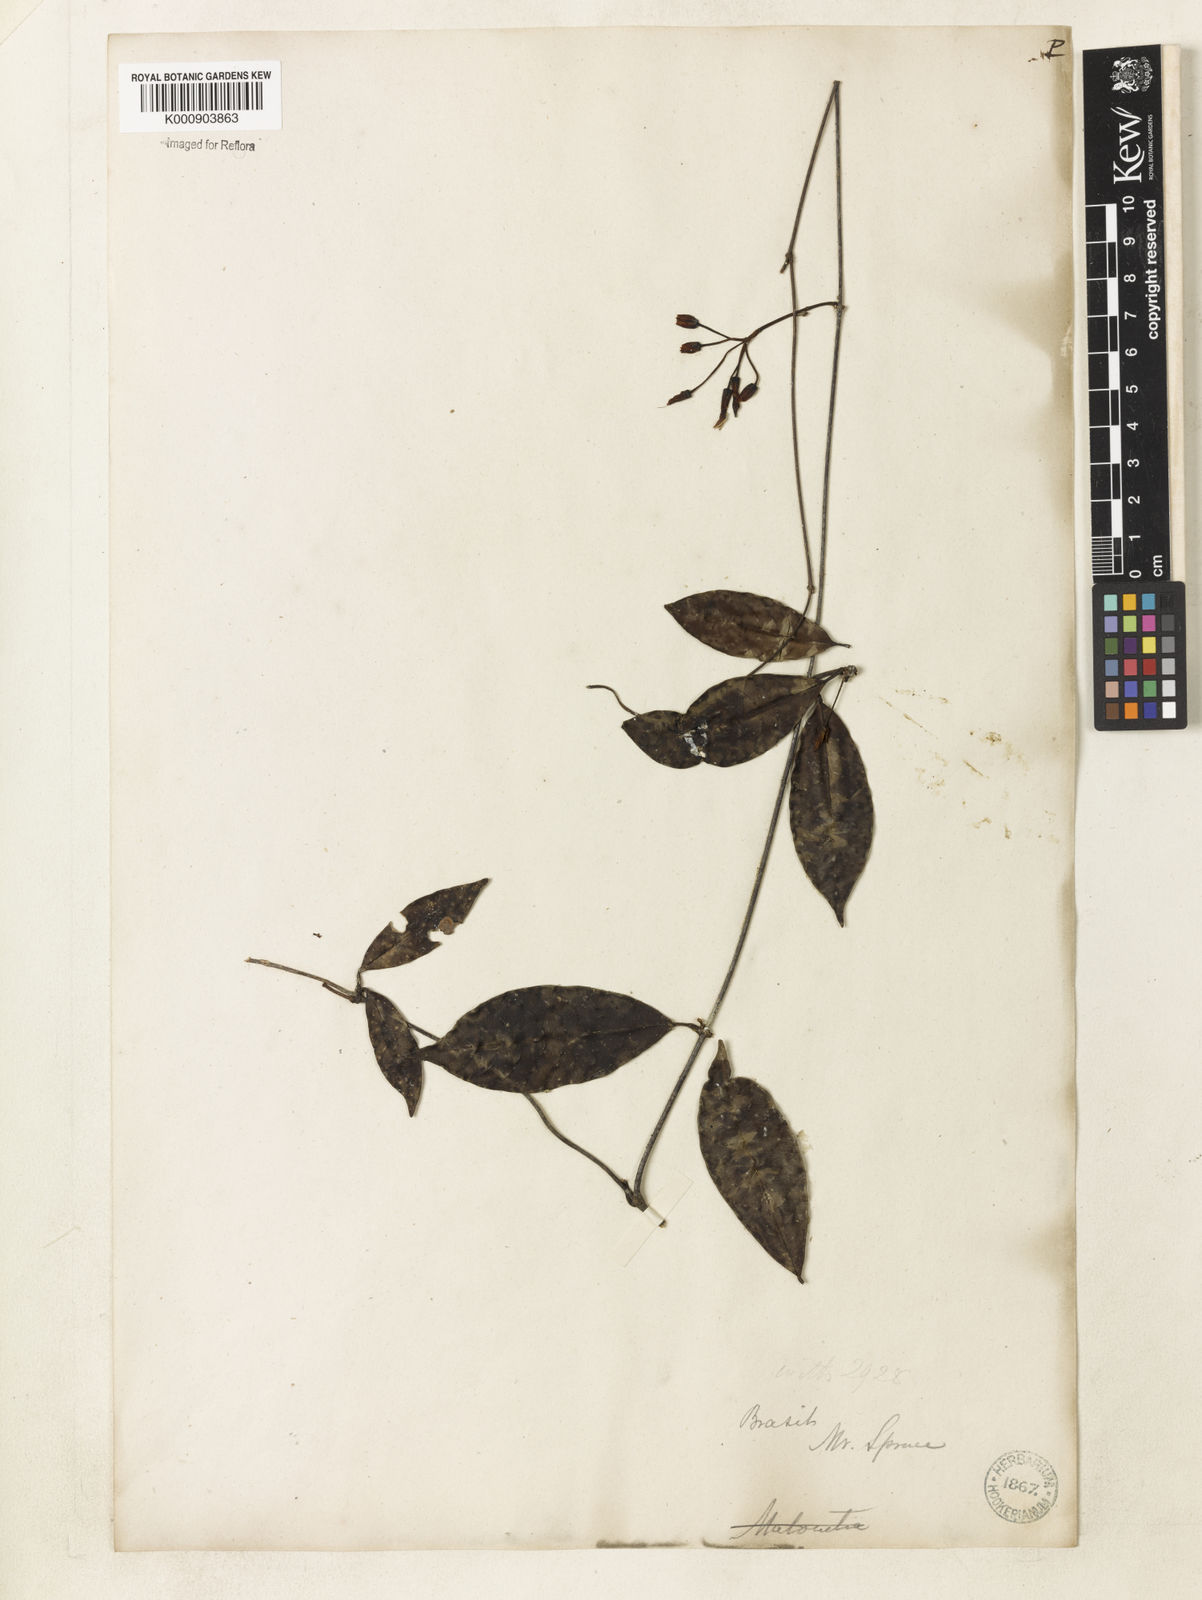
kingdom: Plantae
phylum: Tracheophyta
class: Magnoliopsida
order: Gentianales
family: Apocynaceae
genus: Odontadenia
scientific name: Odontadenia gracilipes
